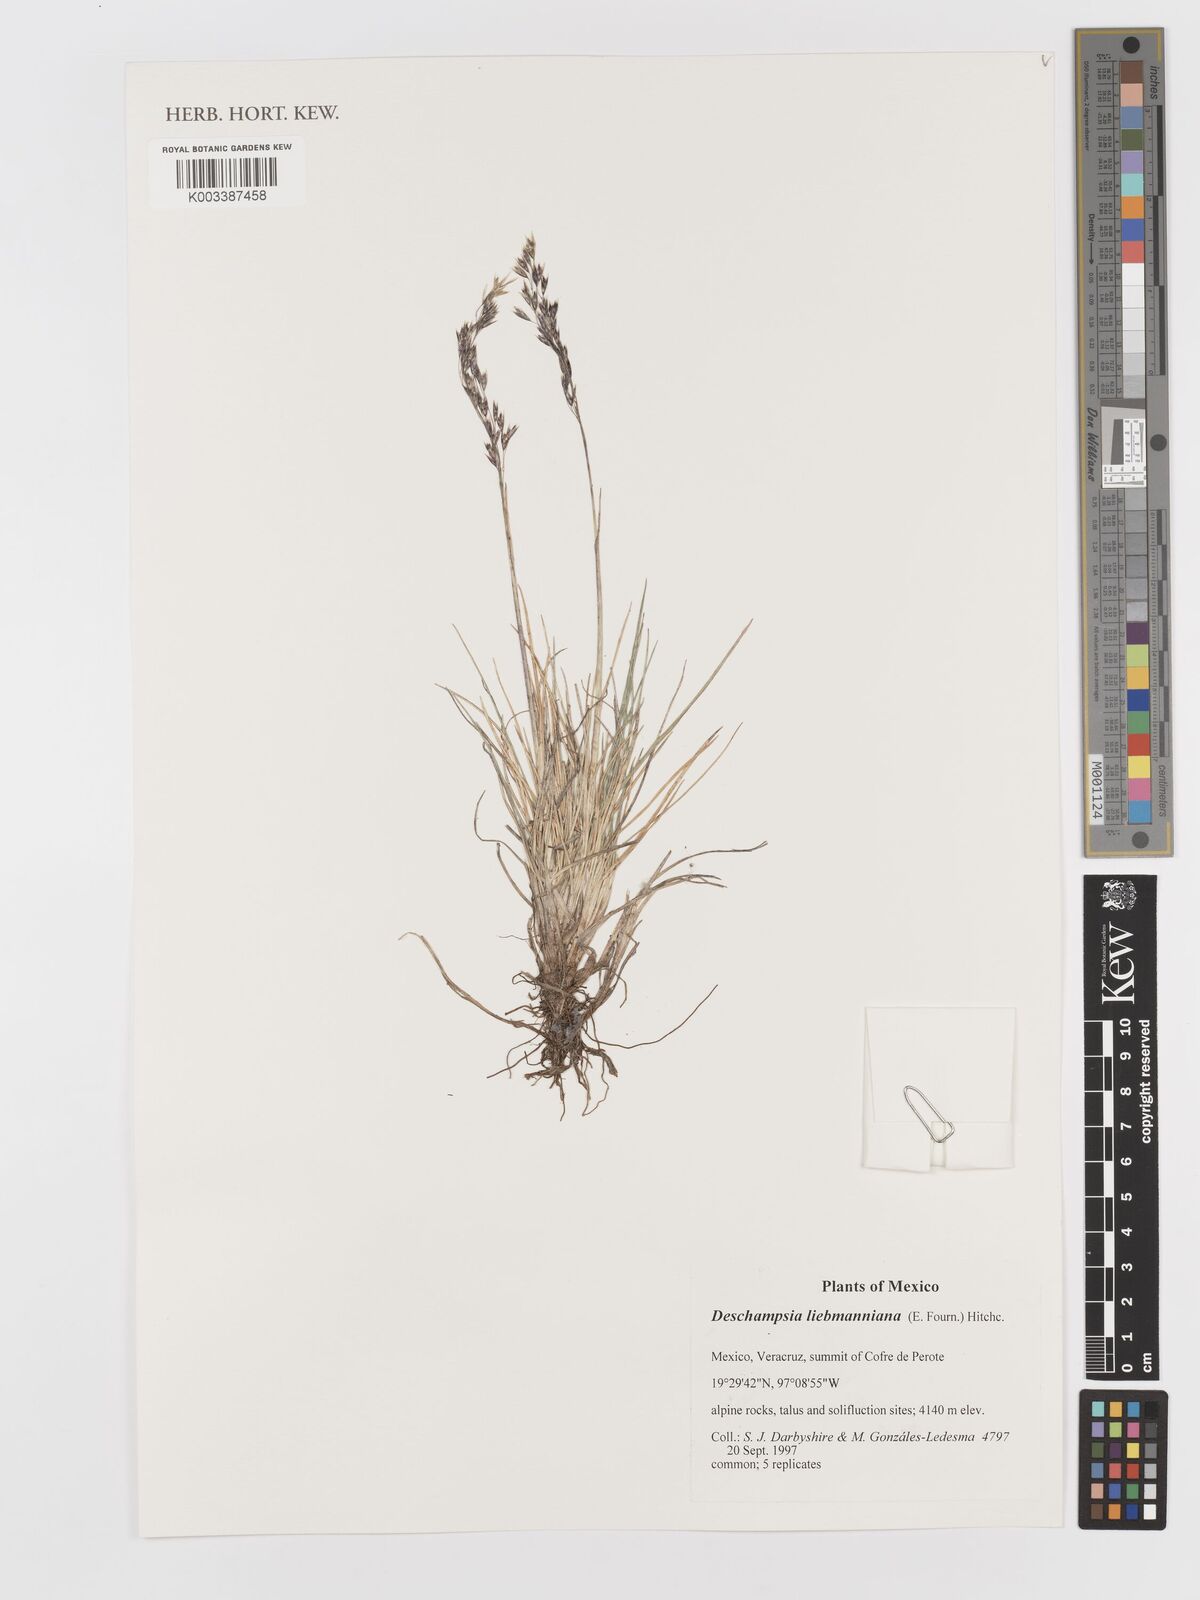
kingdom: Plantae
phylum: Tracheophyta
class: Liliopsida
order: Poales
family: Poaceae
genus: Deschampsia
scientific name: Deschampsia liebmanniana
